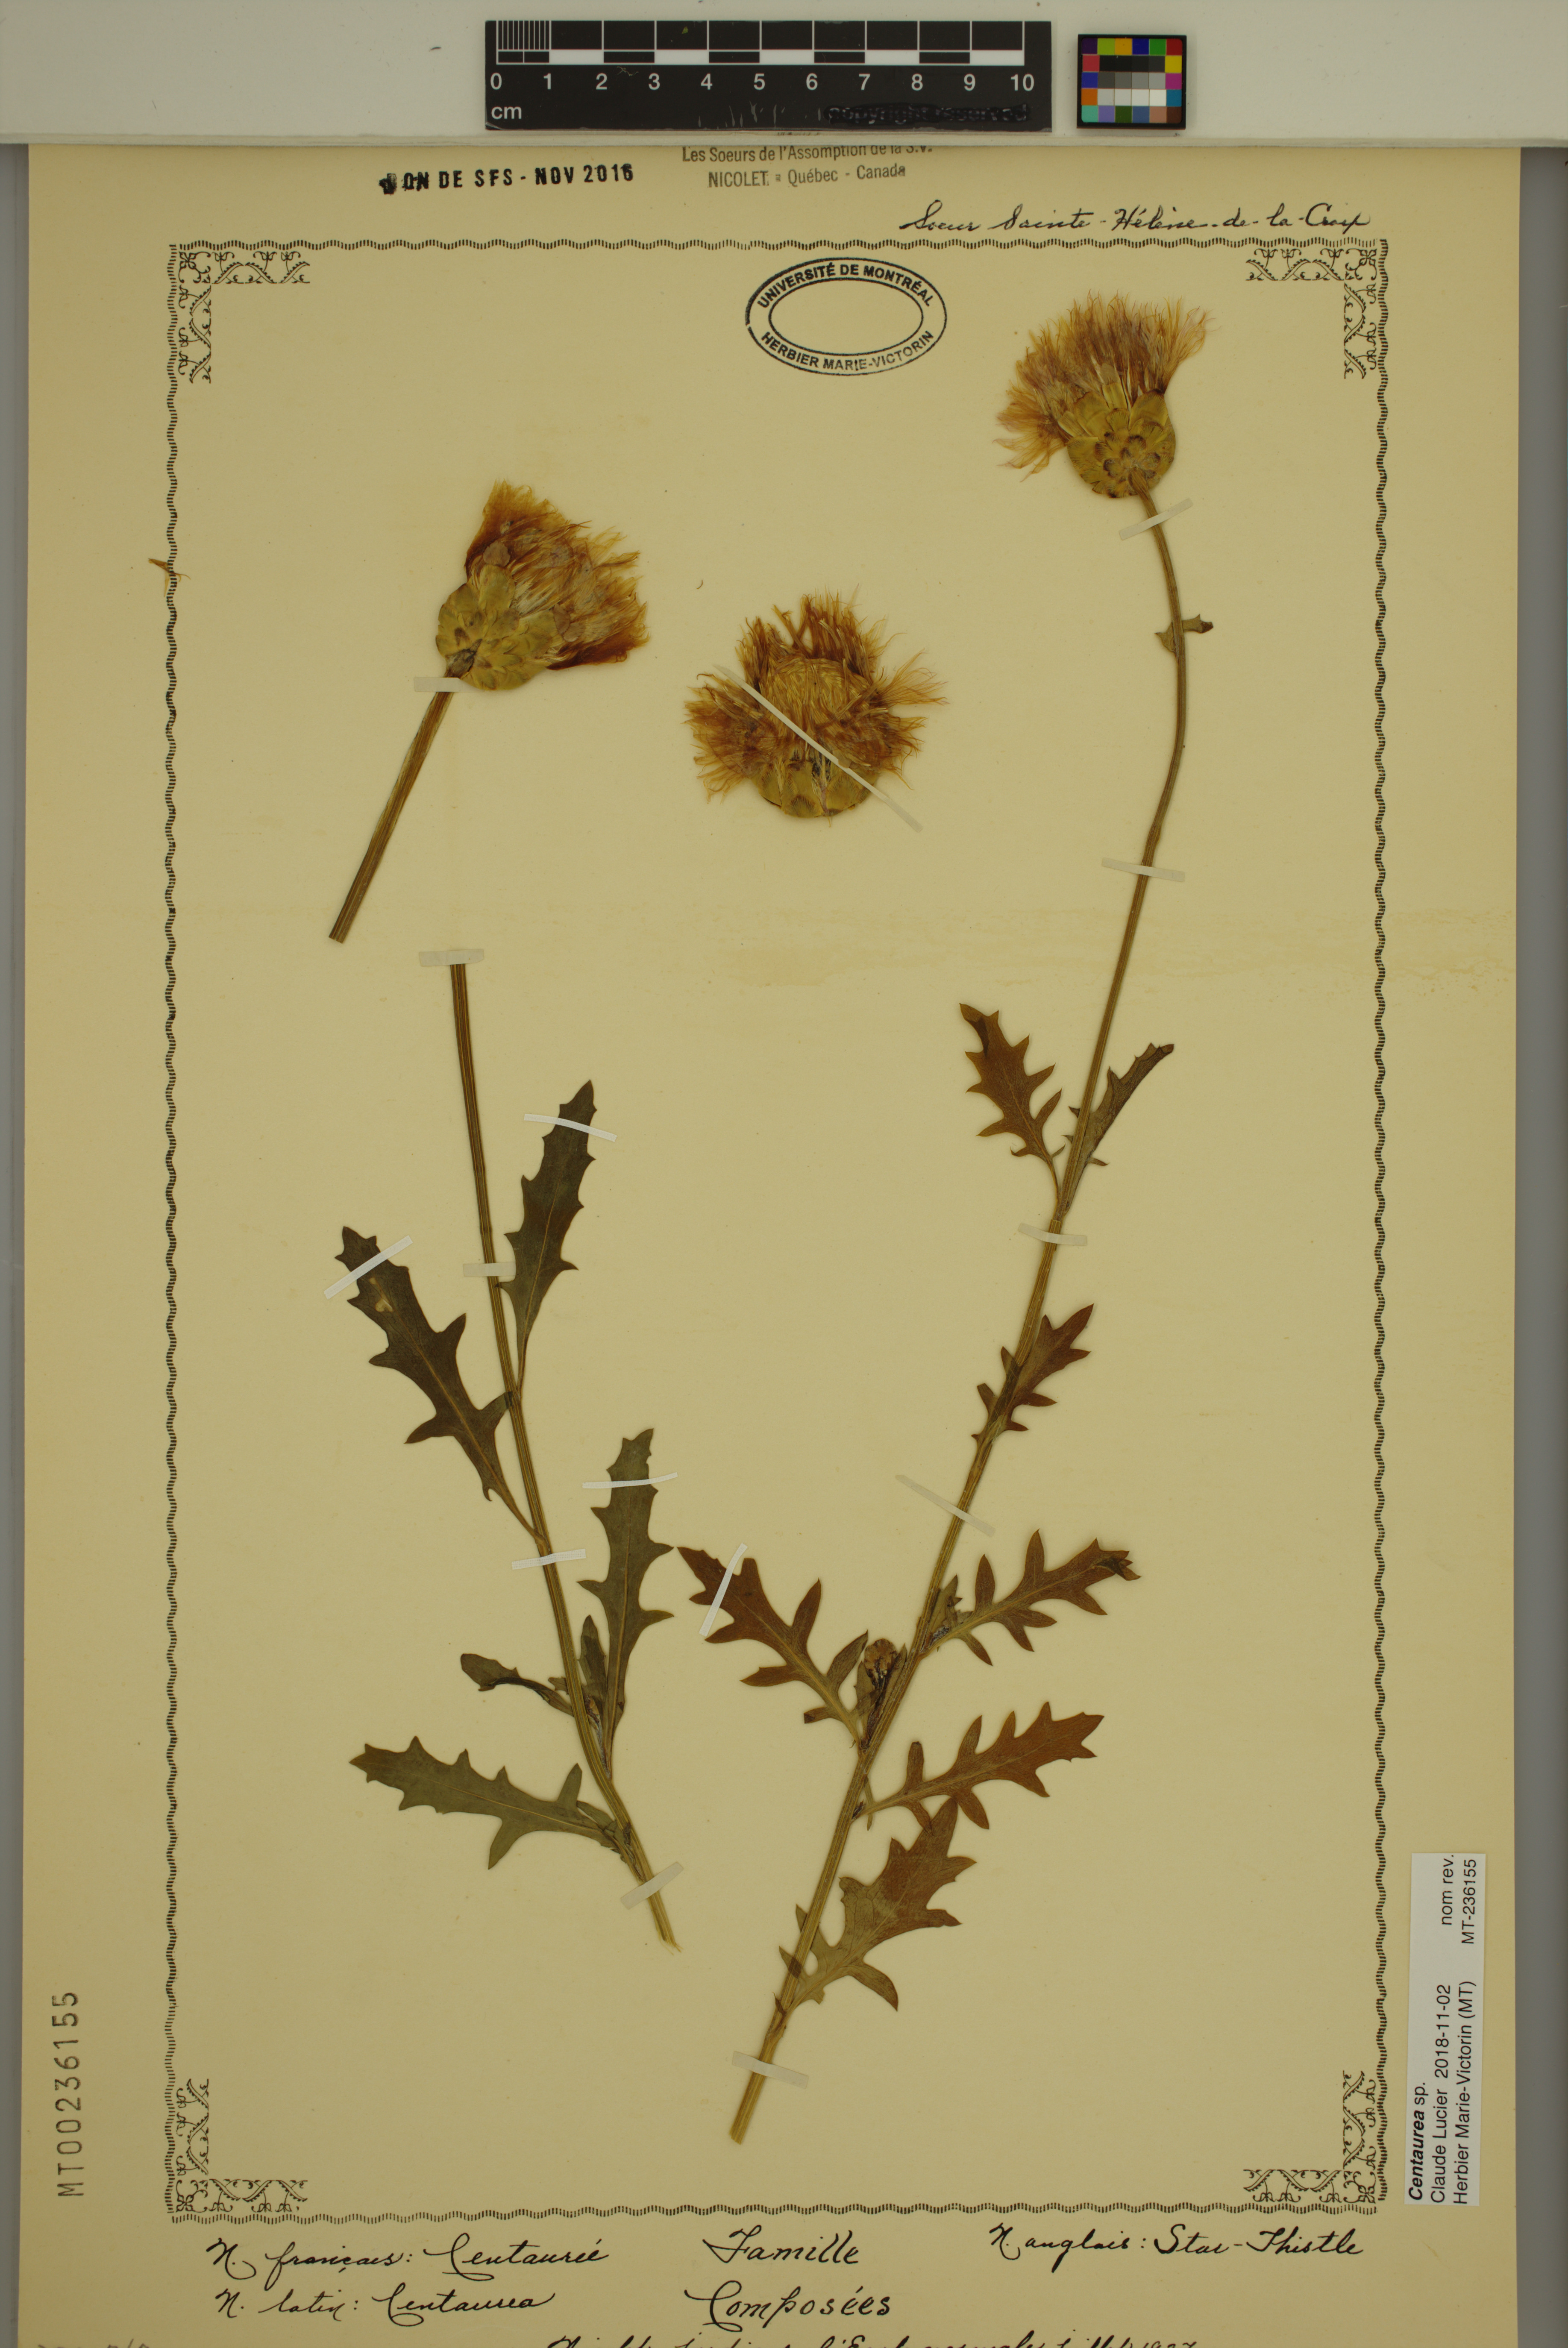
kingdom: Plantae
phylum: Tracheophyta
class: Magnoliopsida
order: Asterales
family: Asteraceae
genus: Centaurea
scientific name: Centaurea
